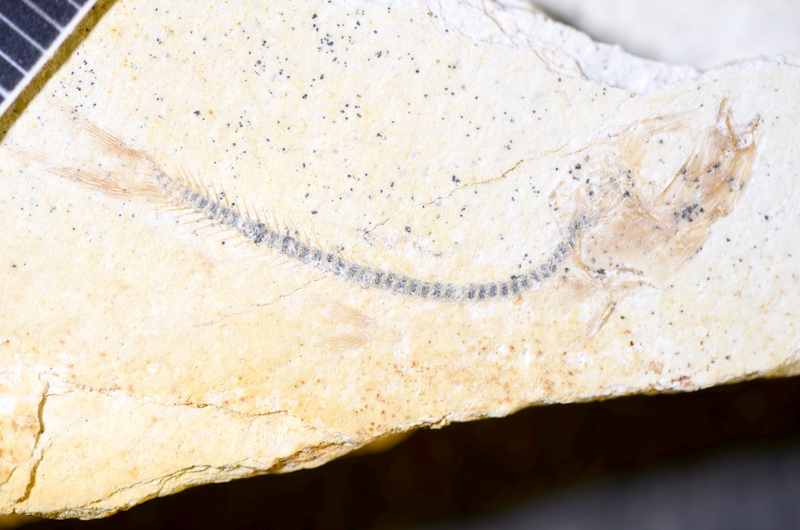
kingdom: Animalia
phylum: Chordata
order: Salmoniformes
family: Orthogonikleithridae
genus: Orthogonikleithrus
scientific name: Orthogonikleithrus hoelli
